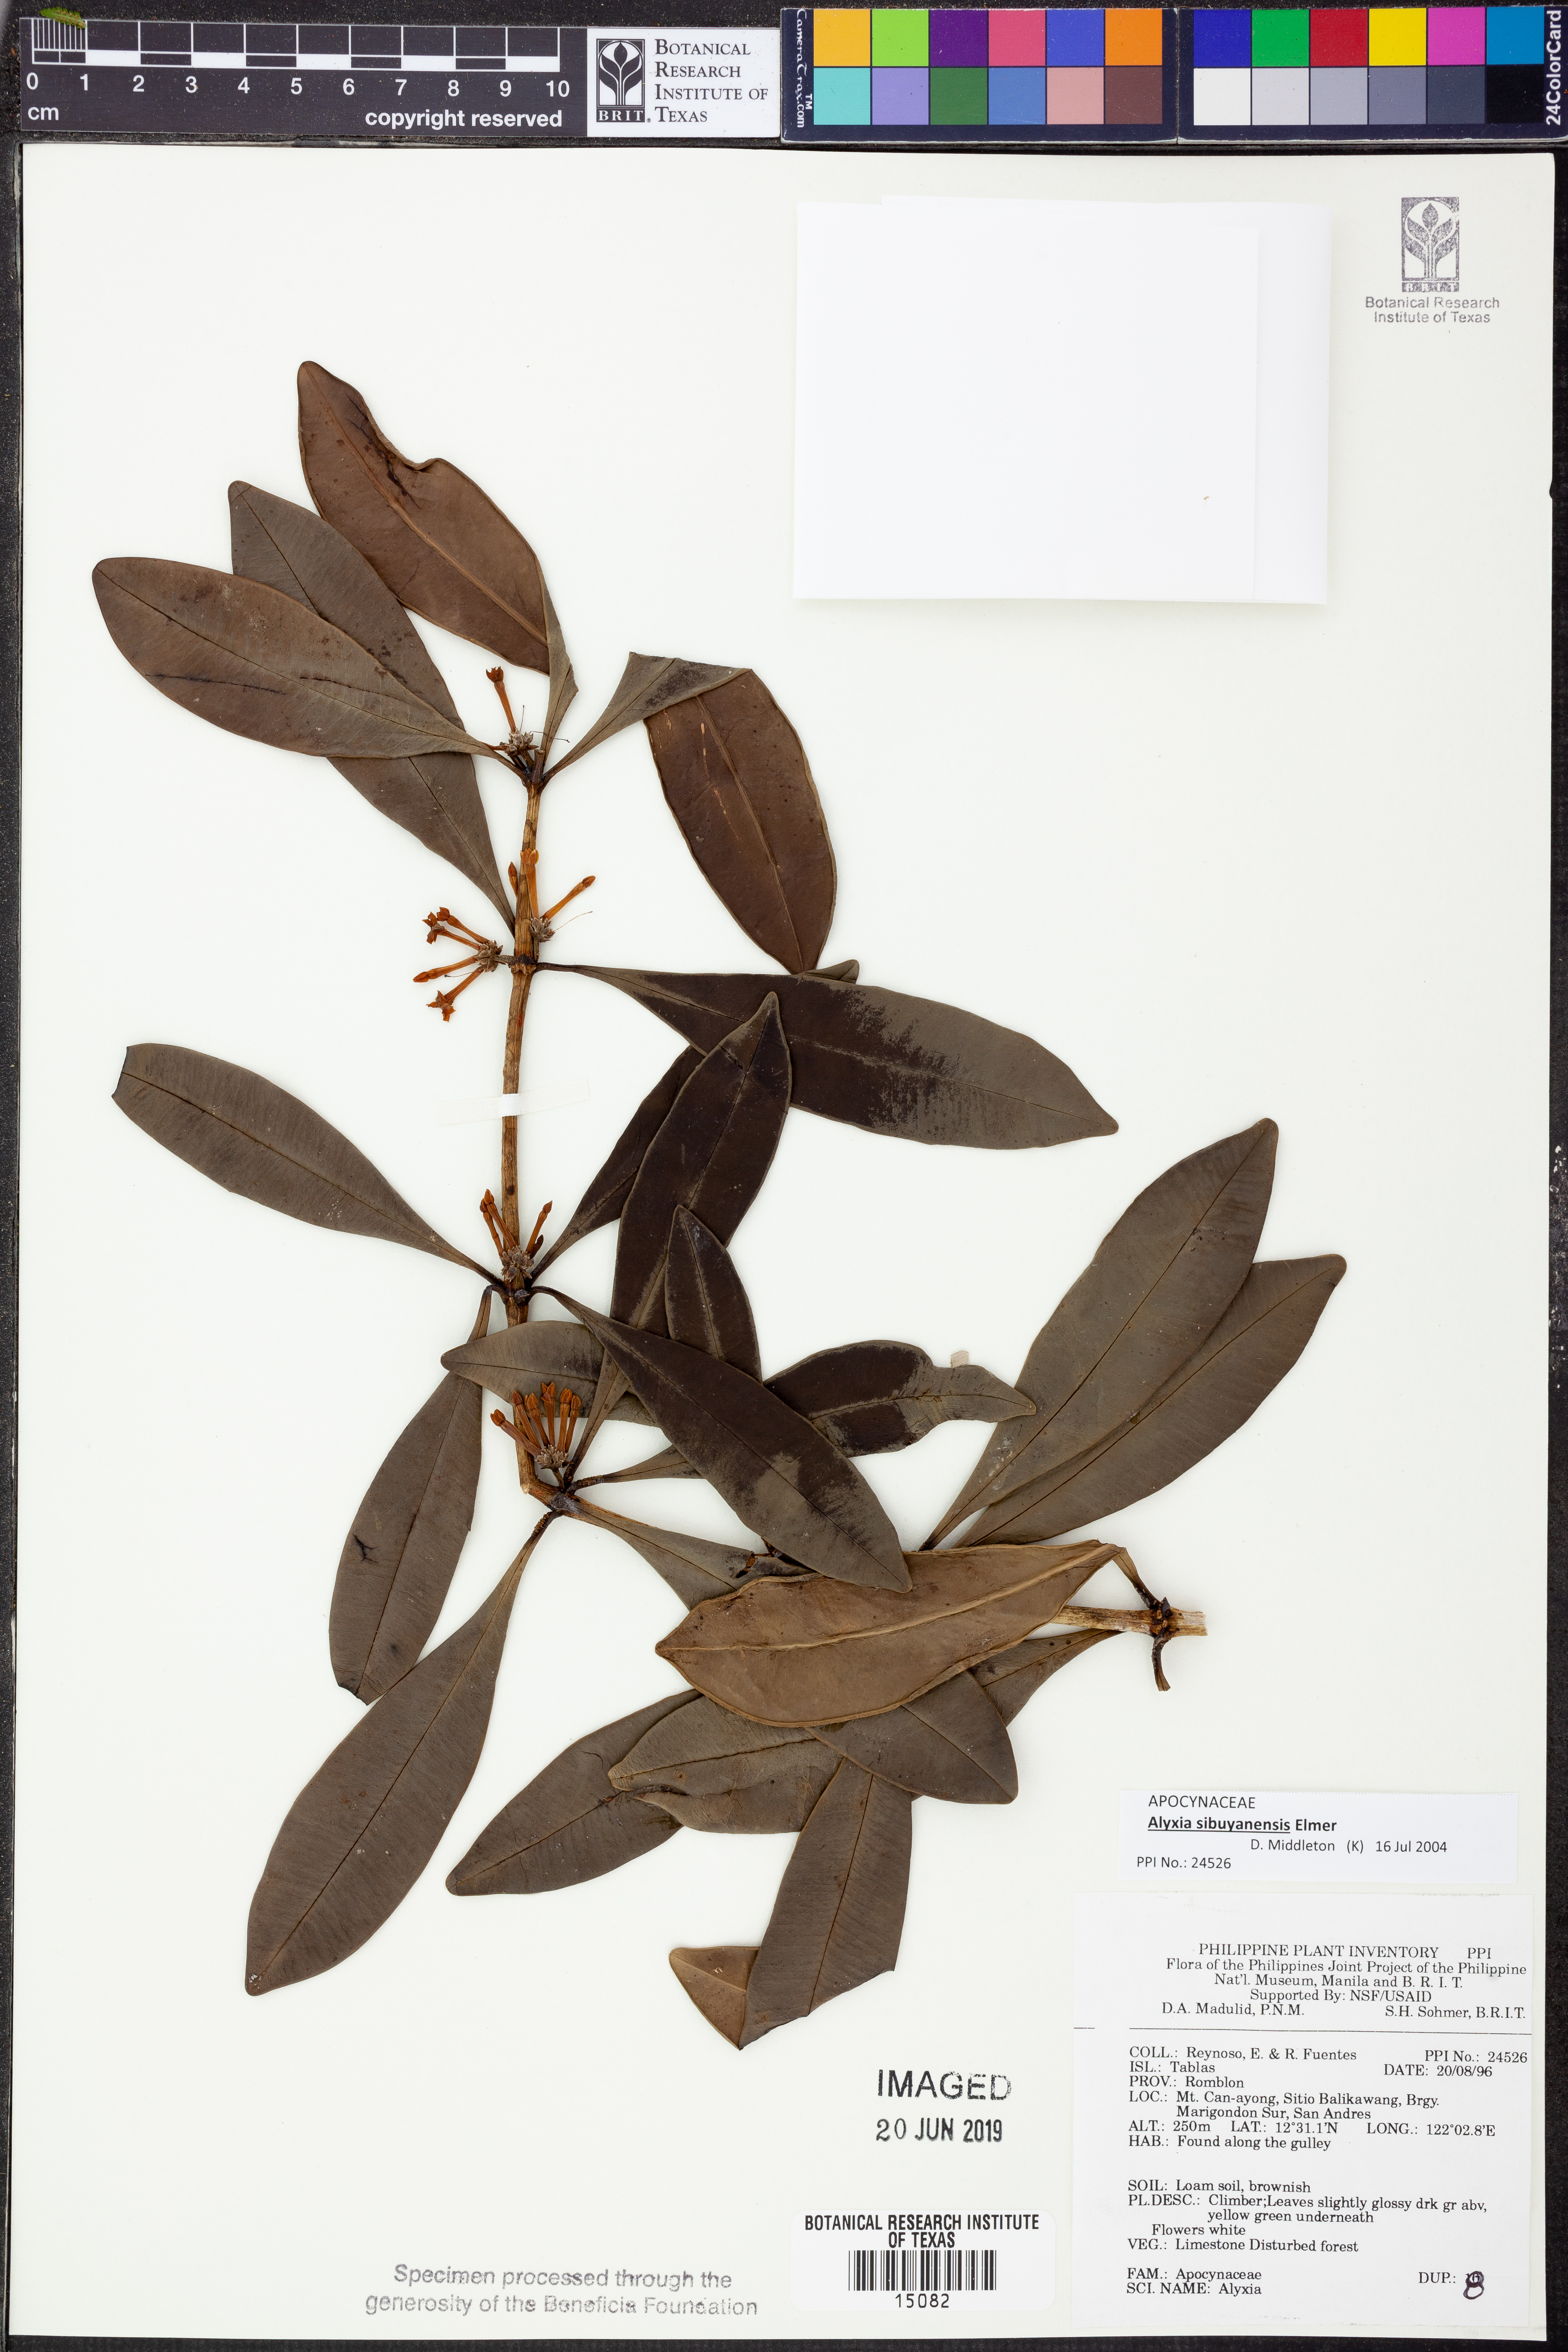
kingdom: Plantae
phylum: Tracheophyta
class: Magnoliopsida
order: Gentianales
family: Apocynaceae
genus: Alyxia
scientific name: Alyxia monticola
